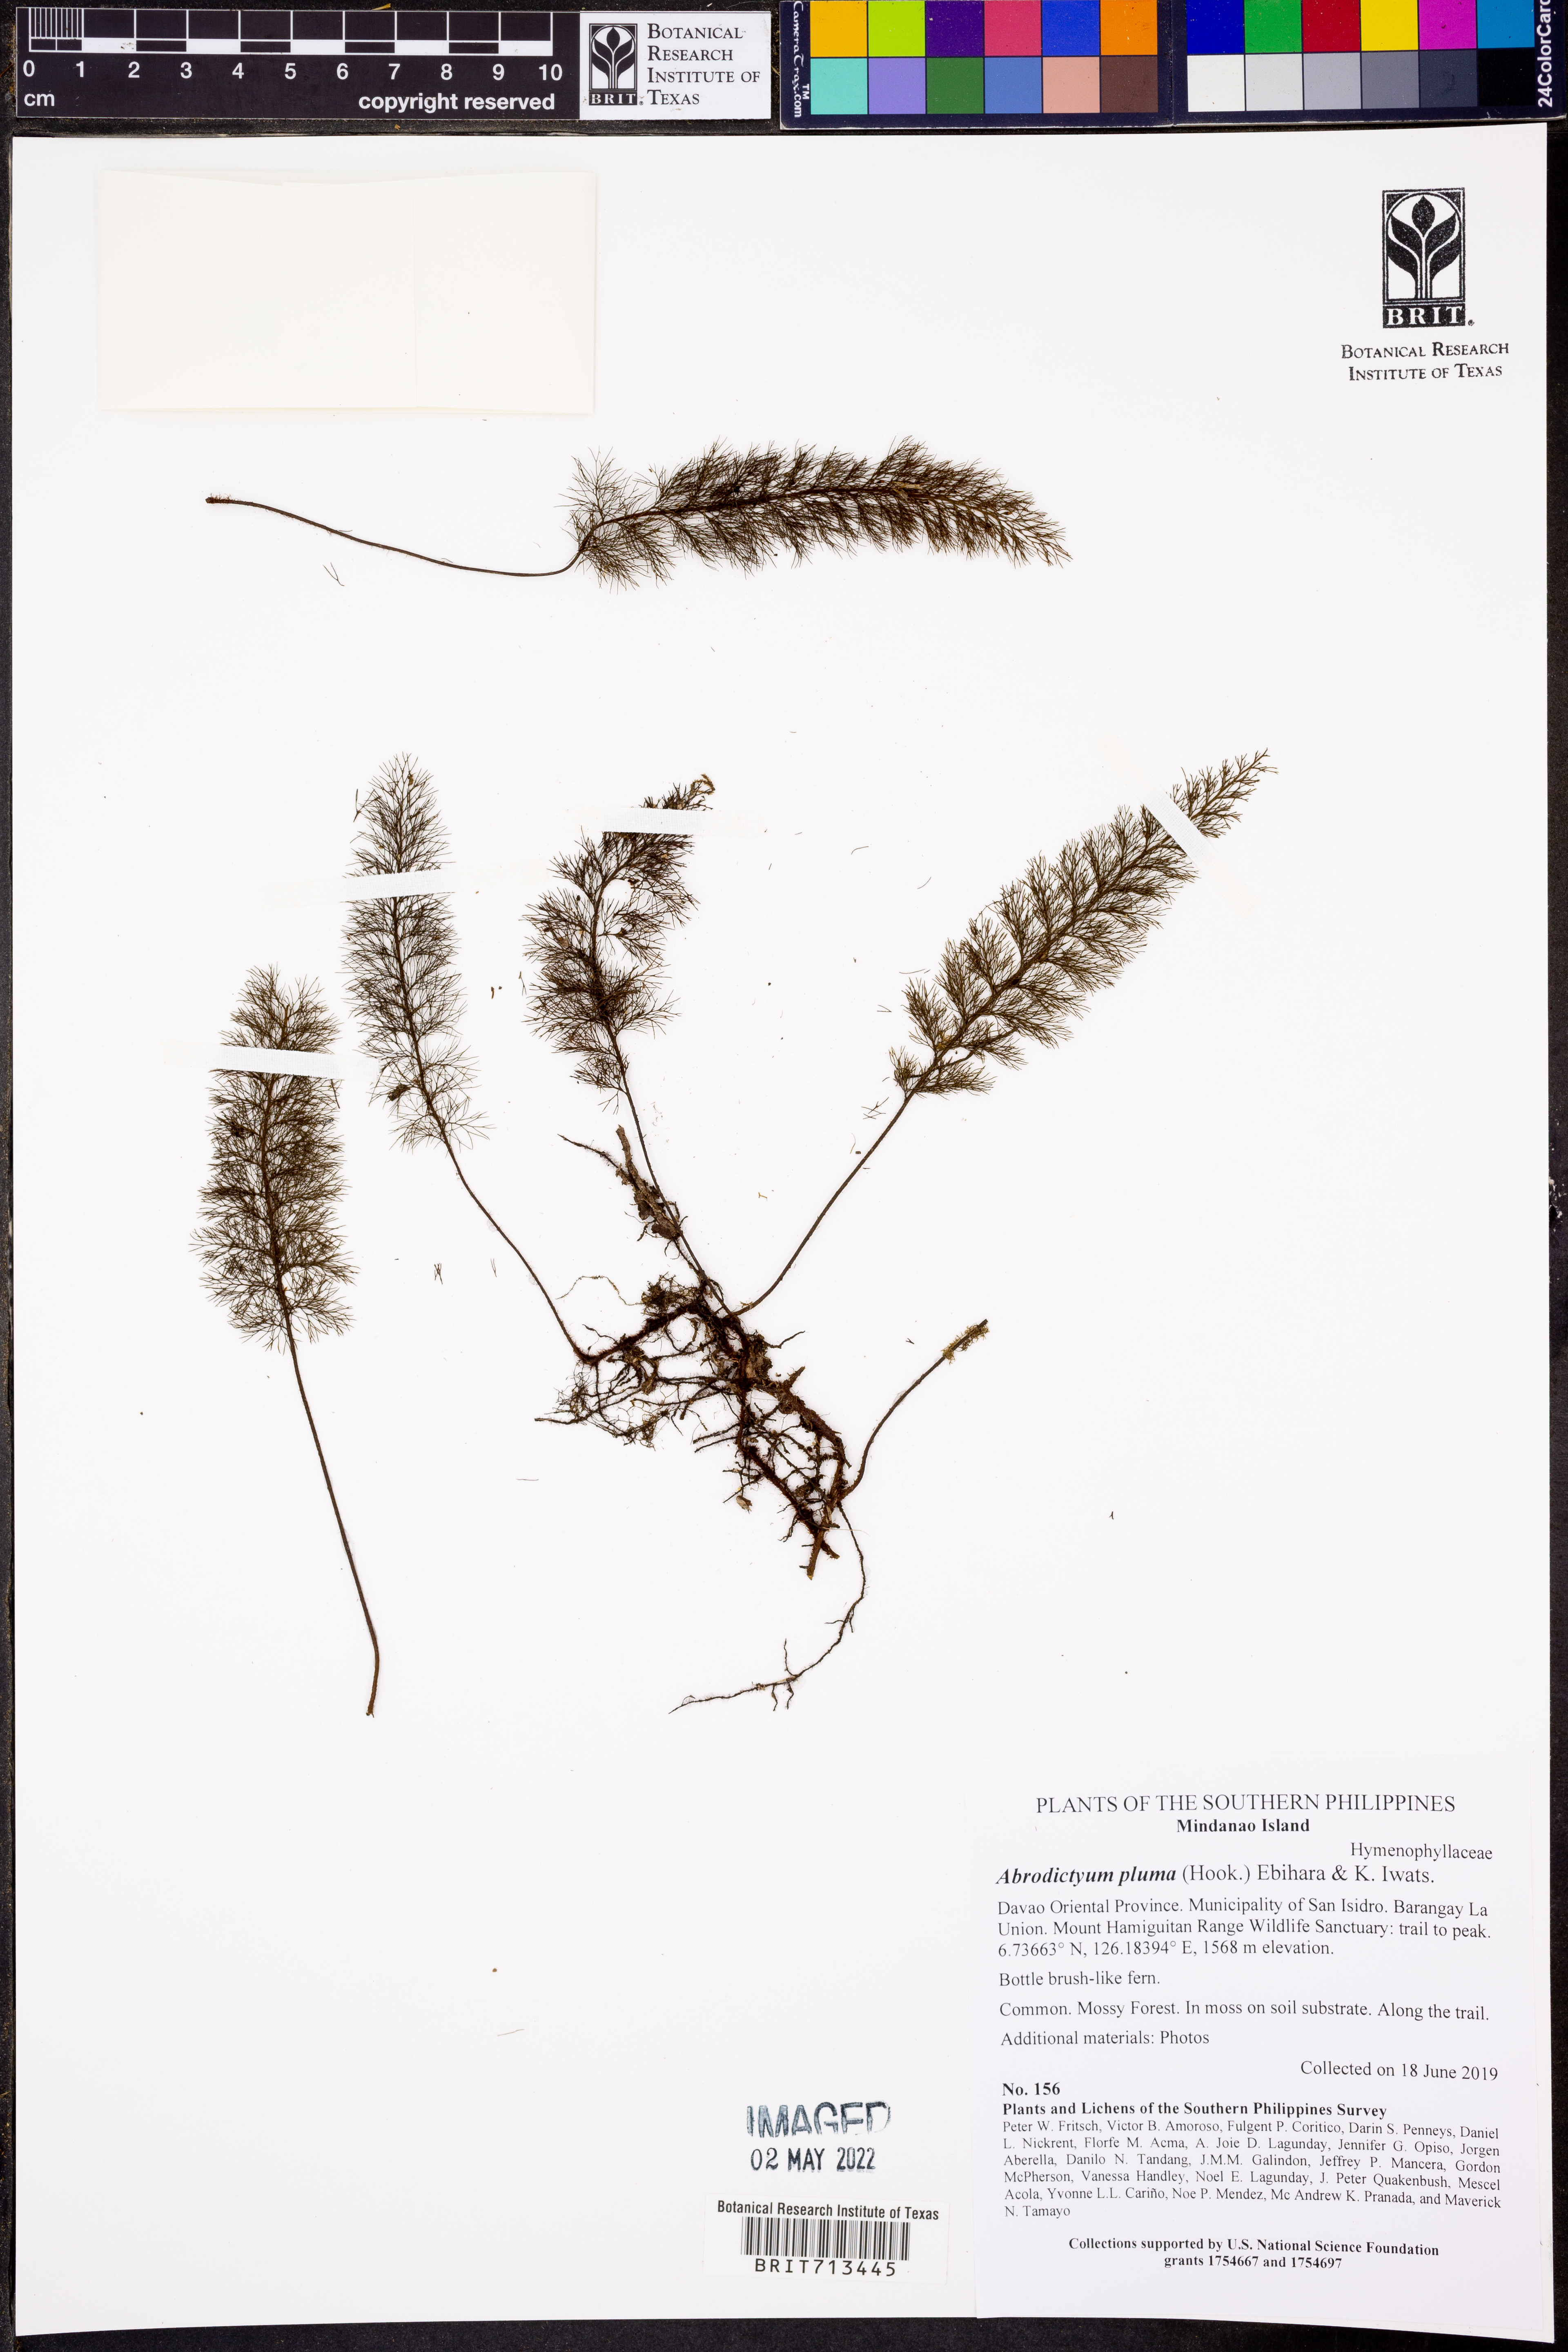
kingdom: Plantae
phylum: Tracheophyta
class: Polypodiopsida
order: Hymenophyllales
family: Hymenophyllaceae
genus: Abrodictyum
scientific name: Abrodictyum pluma
